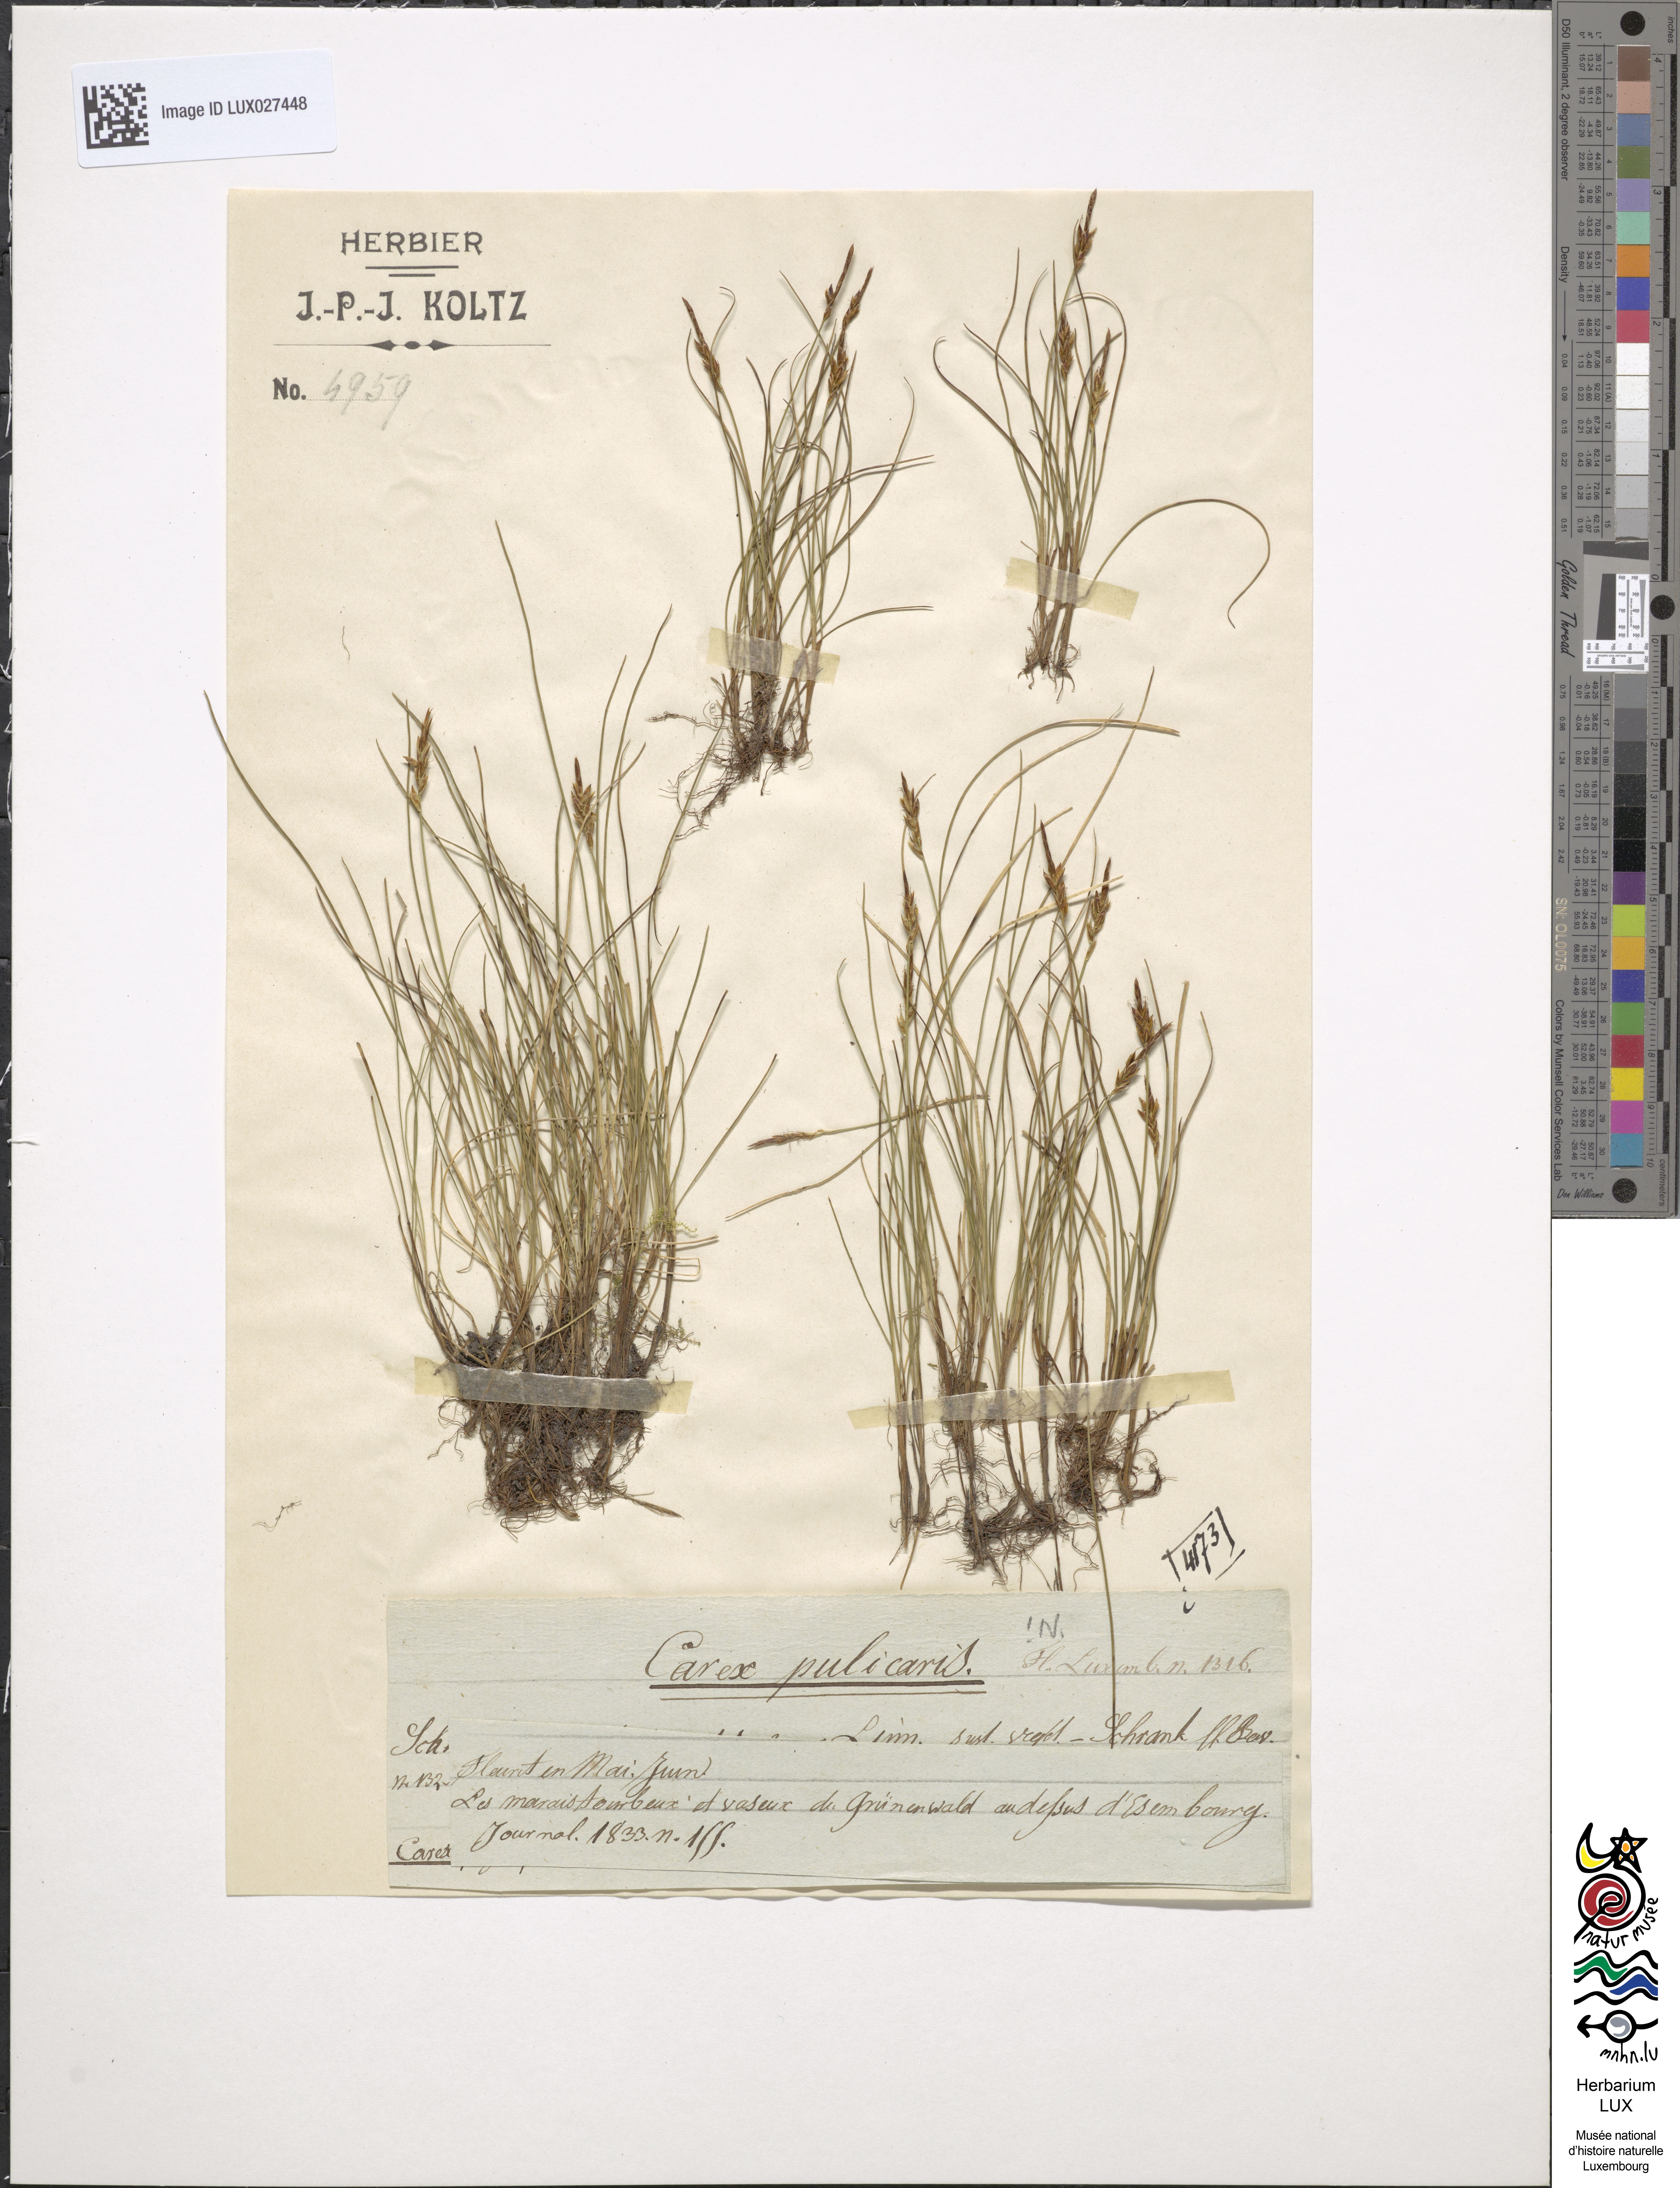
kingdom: Plantae
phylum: Tracheophyta
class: Liliopsida
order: Poales
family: Cyperaceae
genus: Carex
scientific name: Carex pulicaris
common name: Flea sedge
